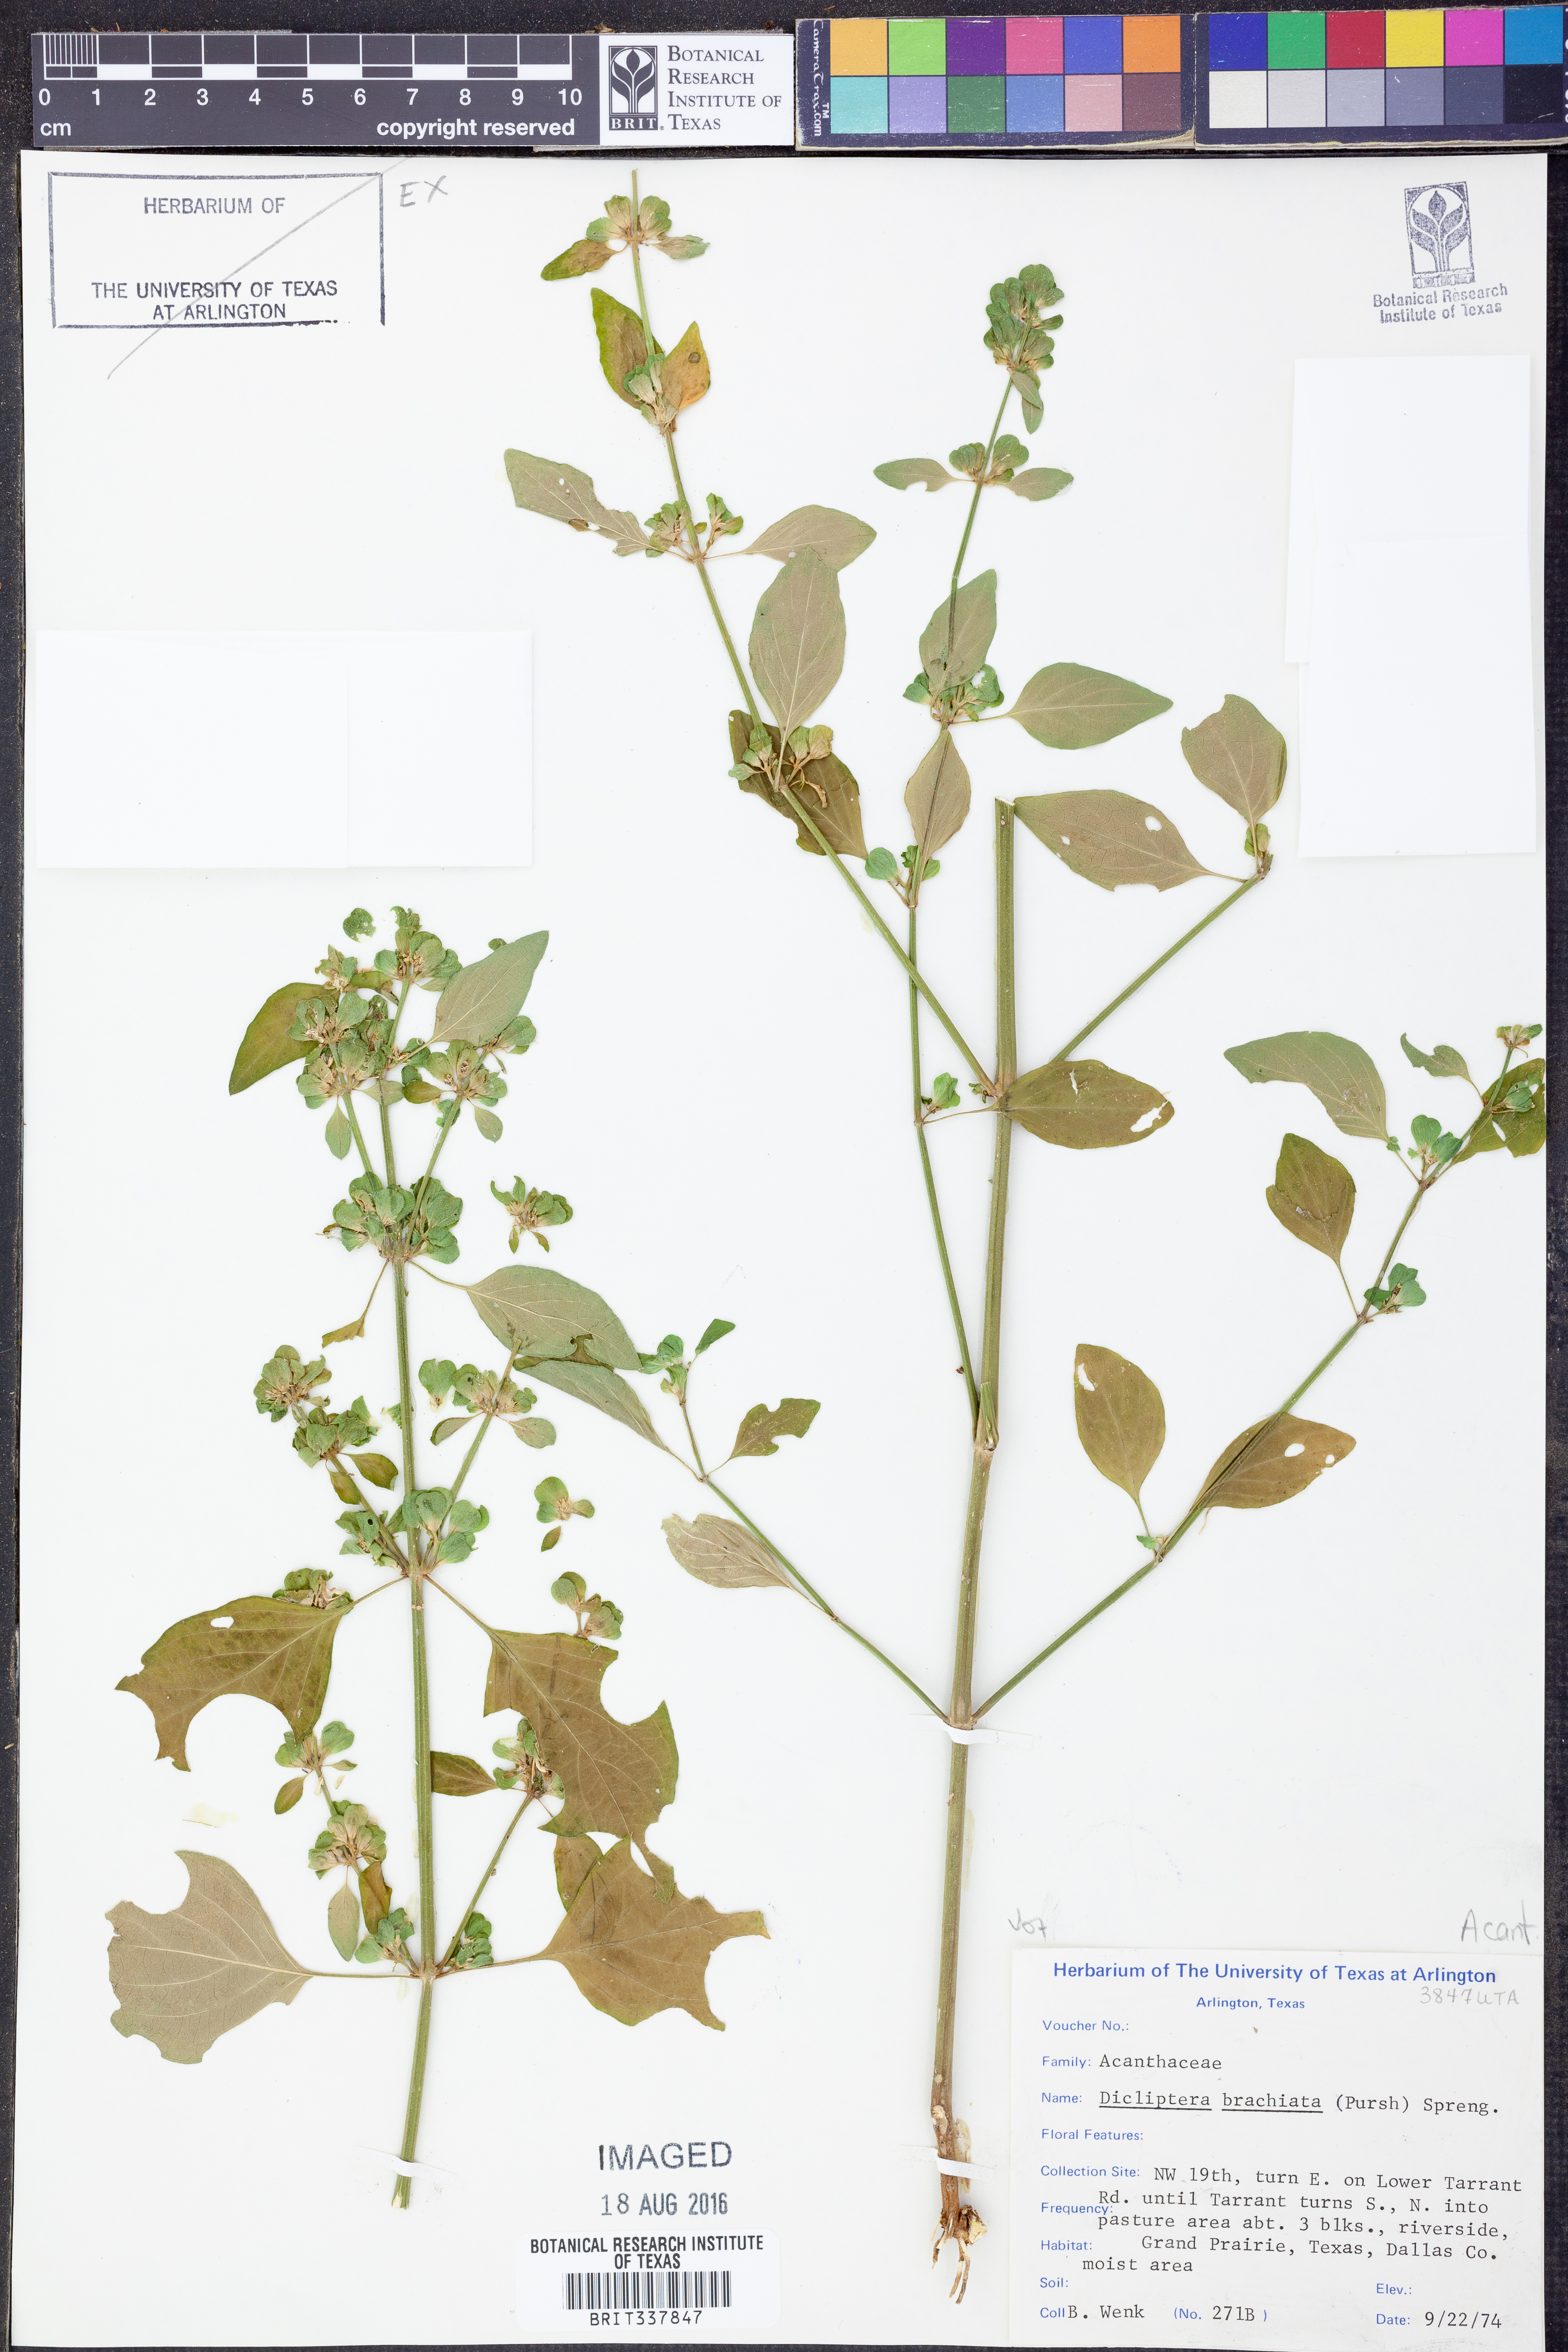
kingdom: Plantae
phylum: Tracheophyta
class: Magnoliopsida
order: Lamiales
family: Acanthaceae
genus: Dicliptera
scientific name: Dicliptera brachiata
